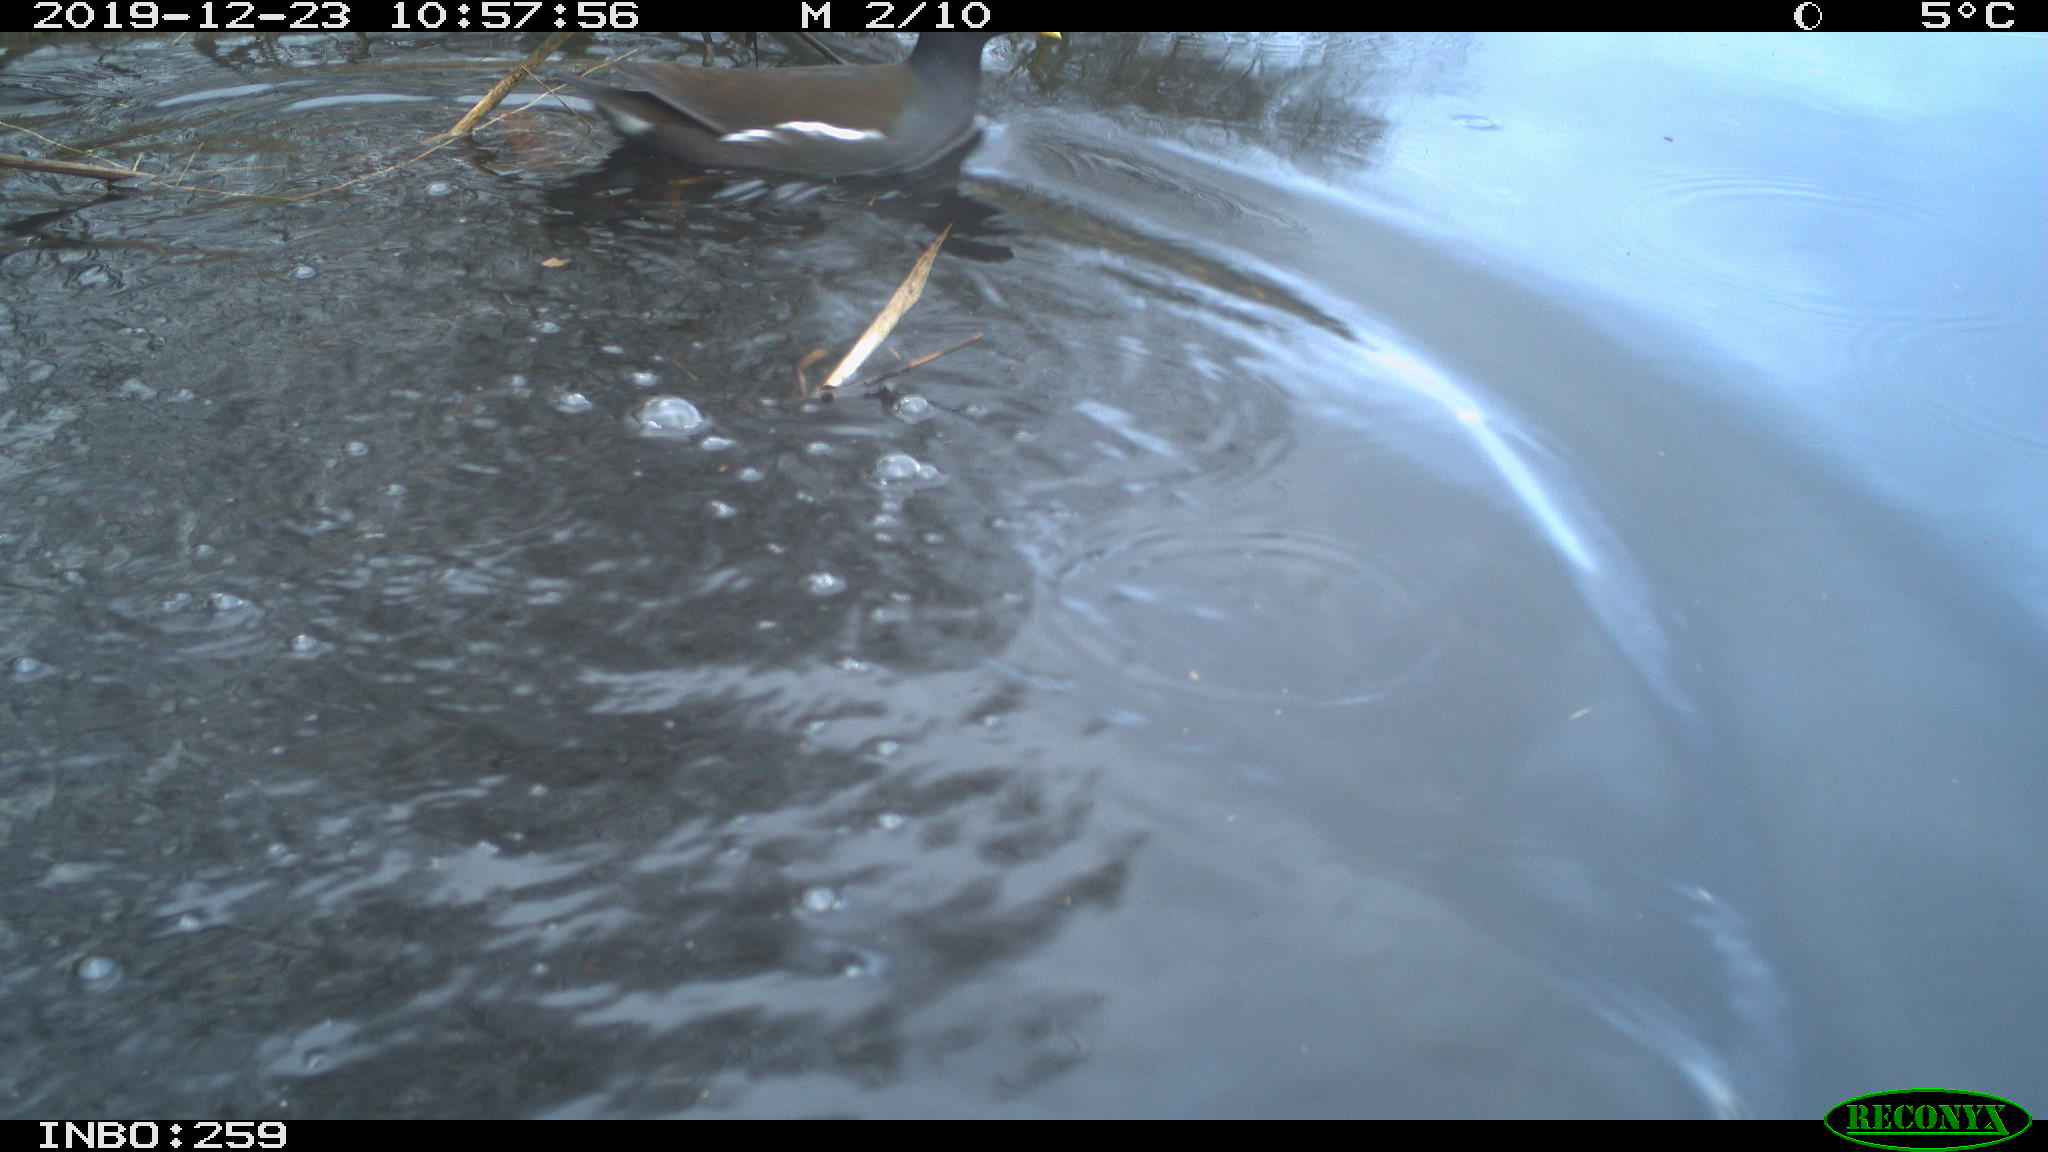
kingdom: Animalia
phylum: Chordata
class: Aves
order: Gruiformes
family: Rallidae
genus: Gallinula
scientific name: Gallinula chloropus
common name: Common moorhen
